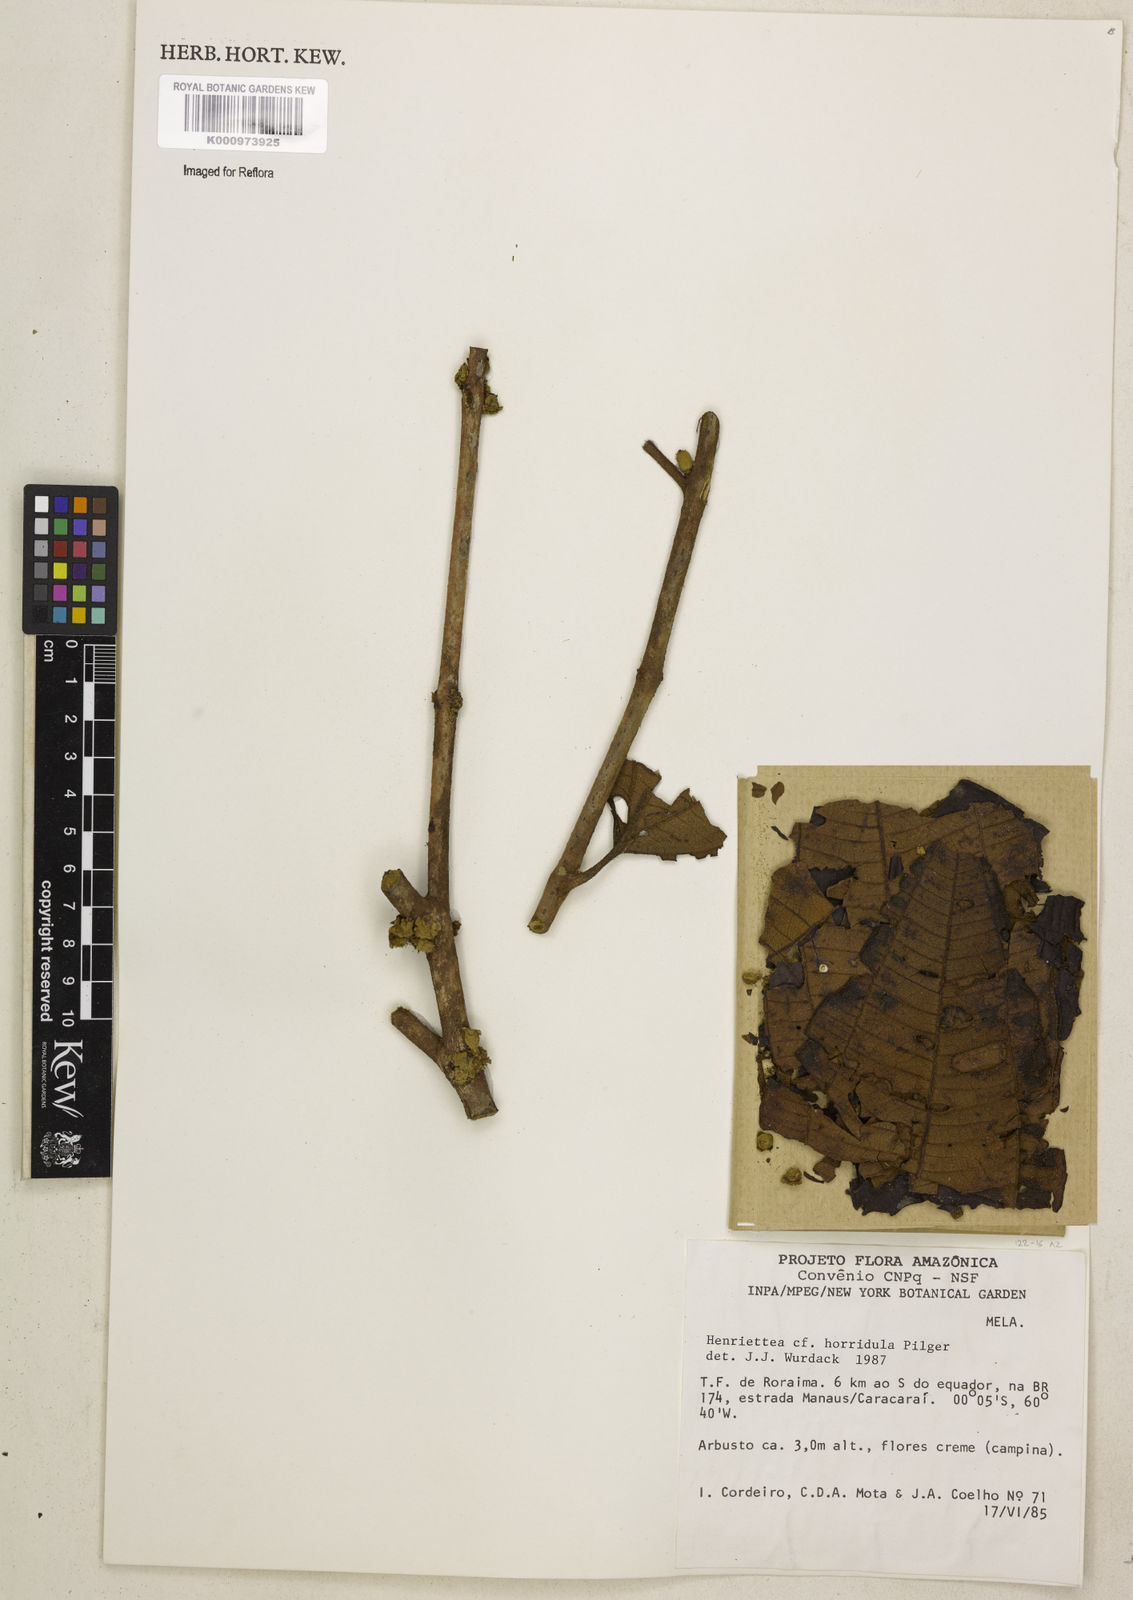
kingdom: Plantae
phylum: Tracheophyta
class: Magnoliopsida
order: Myrtales
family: Melastomataceae
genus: Henriettea
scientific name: Henriettea horridula
